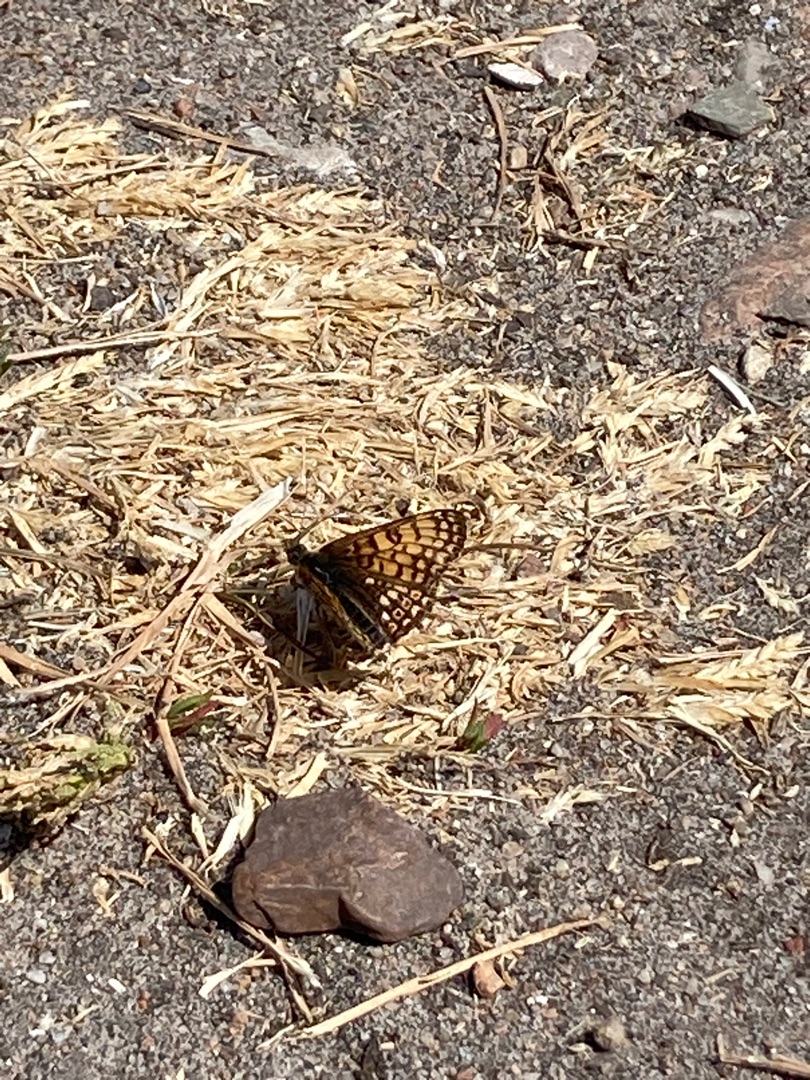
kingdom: Animalia
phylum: Arthropoda
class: Insecta
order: Lepidoptera
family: Nymphalidae
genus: Melitaea
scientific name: Melitaea cinxia
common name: Okkergul pletvinge
